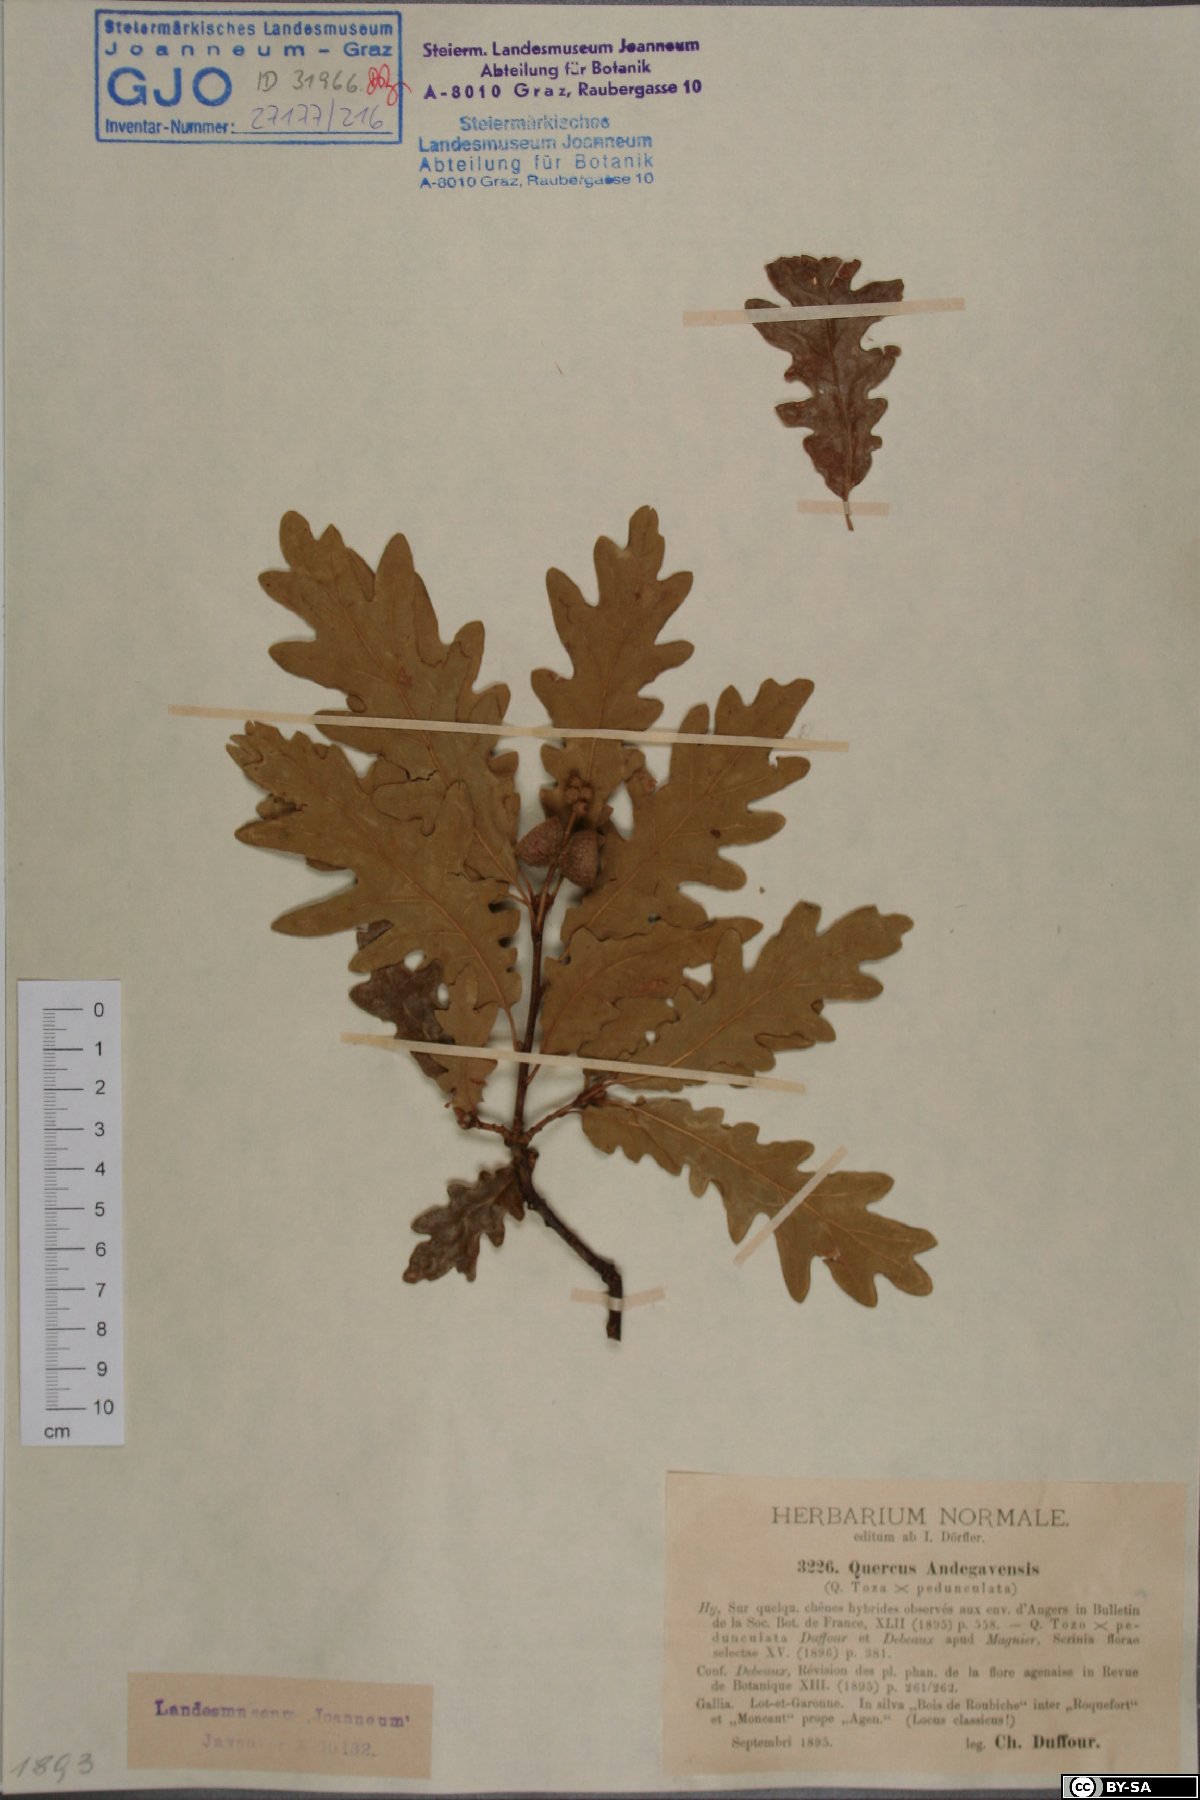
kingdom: Plantae
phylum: Tracheophyta
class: Magnoliopsida
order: Fagales
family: Fagaceae
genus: Quercus
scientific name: Quercus andegavensis
